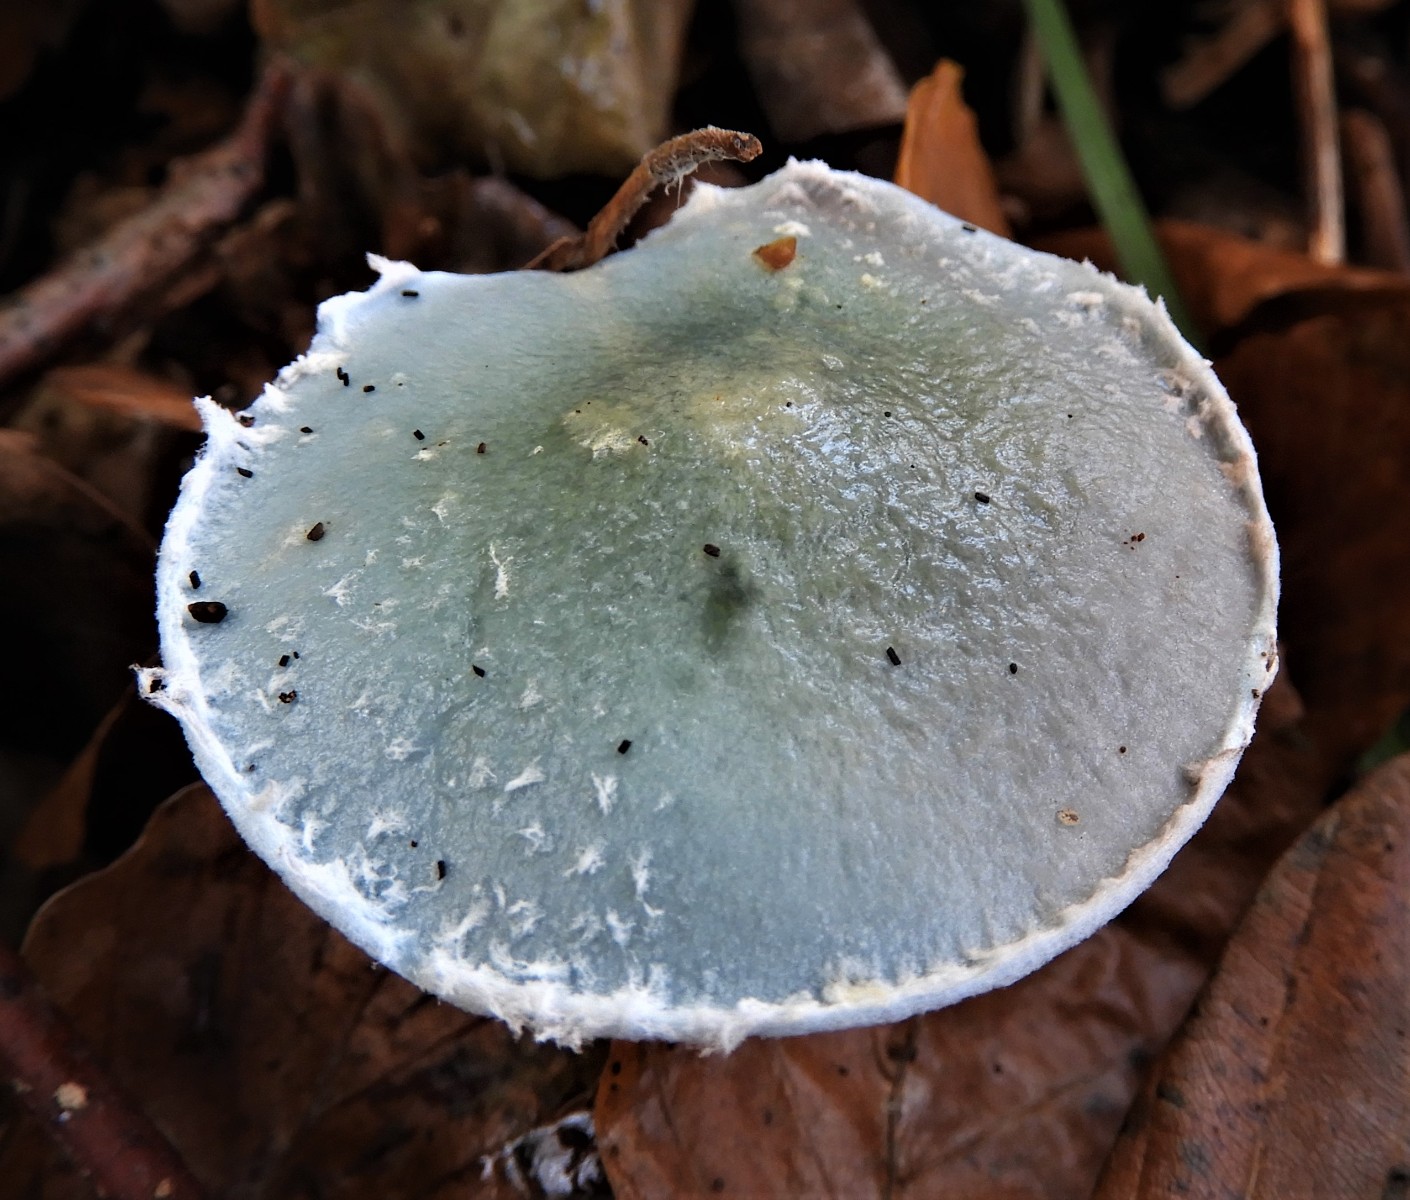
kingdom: Fungi
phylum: Basidiomycota
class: Agaricomycetes
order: Agaricales
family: Strophariaceae
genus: Stropharia
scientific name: Stropharia cyanea
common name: blågrøn bredblad
